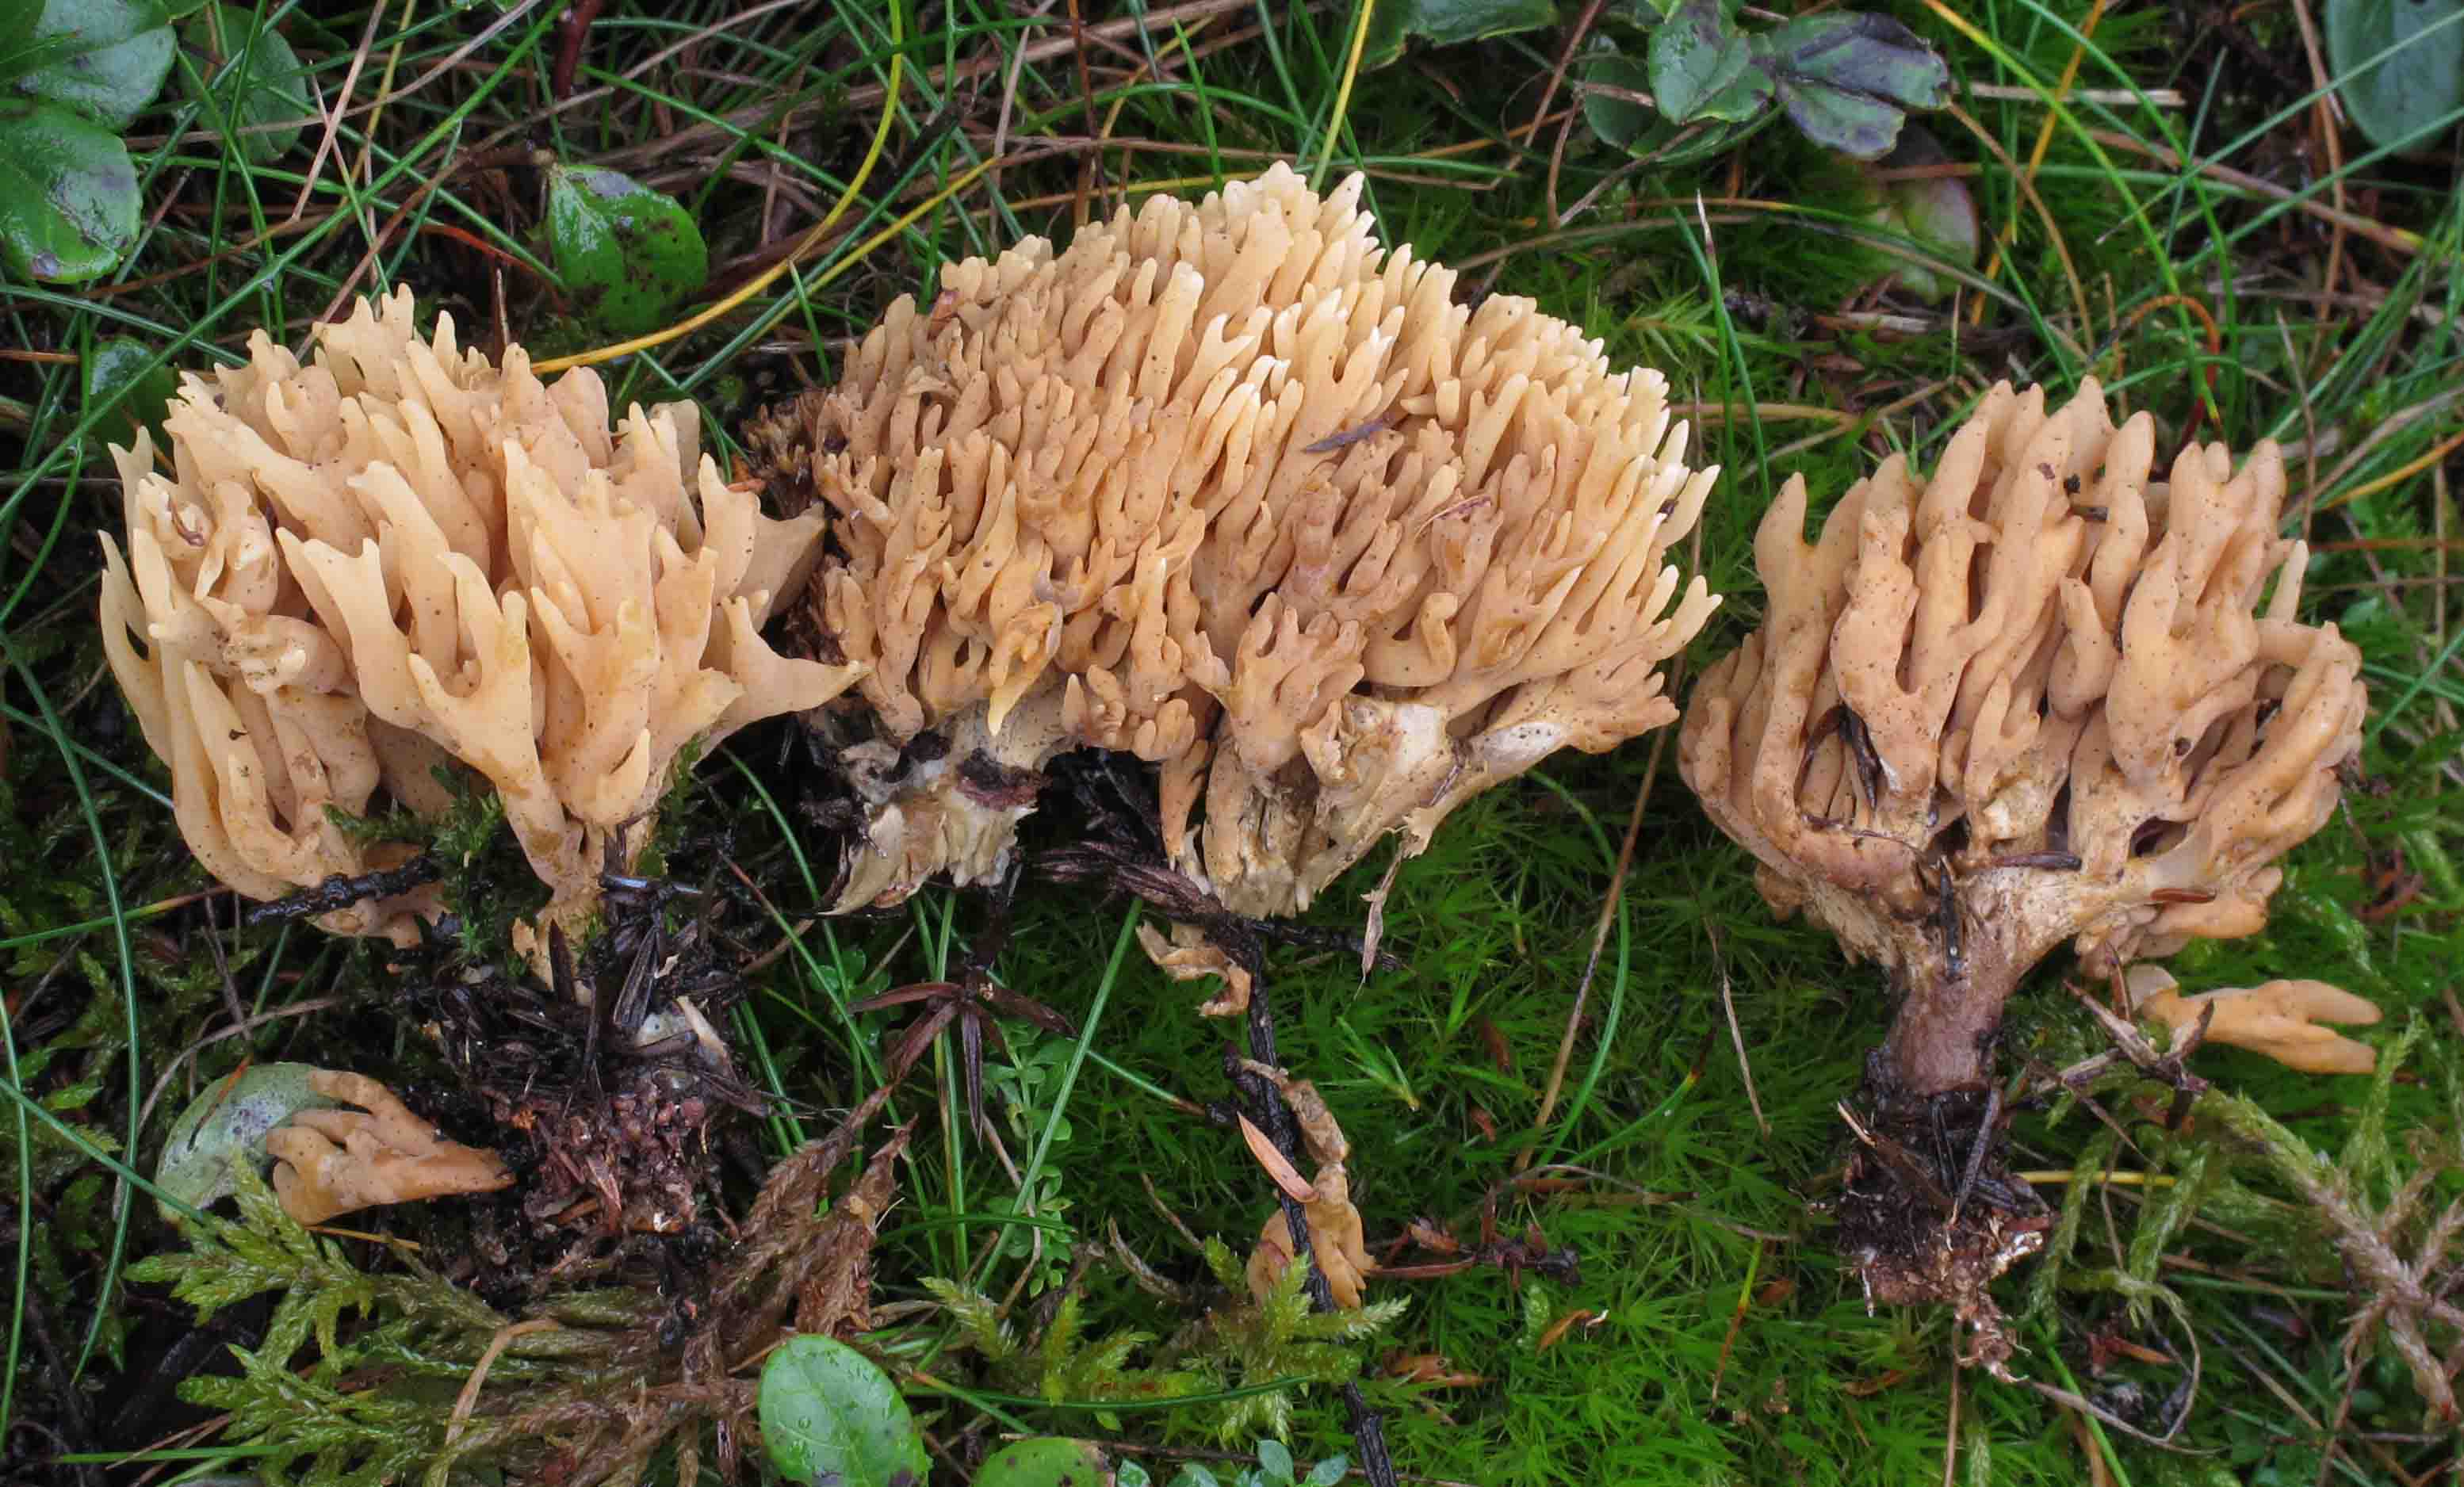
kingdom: Fungi
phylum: Basidiomycota
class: Agaricomycetes
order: Gomphales
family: Gomphaceae
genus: Phaeoclavulina
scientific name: Phaeoclavulina eumorpha
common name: gran-koralsvamp
